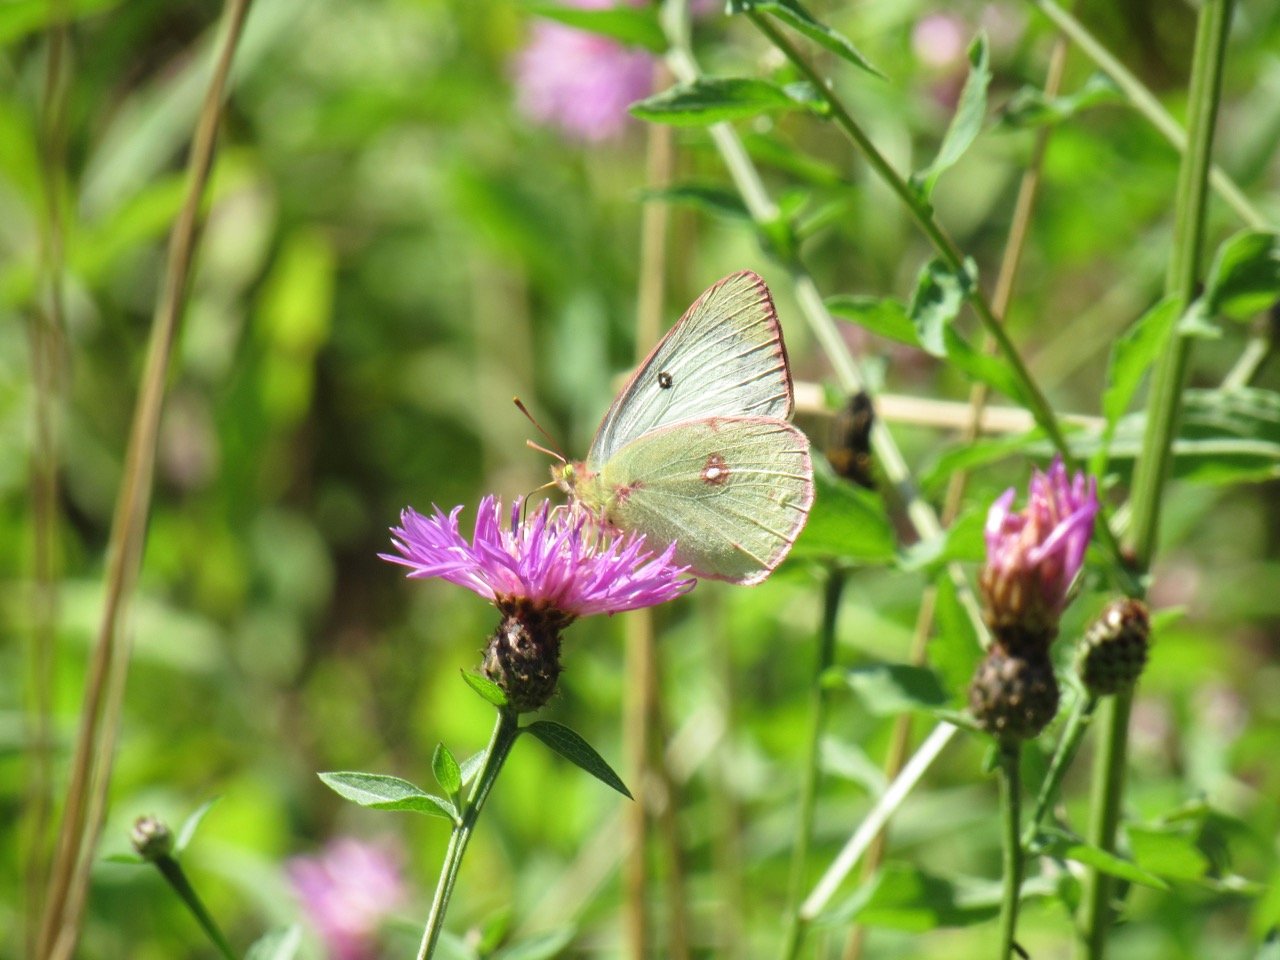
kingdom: Animalia
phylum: Arthropoda
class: Insecta
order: Lepidoptera
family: Pieridae
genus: Colias
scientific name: Colias philodice
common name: Clouded Sulphur
